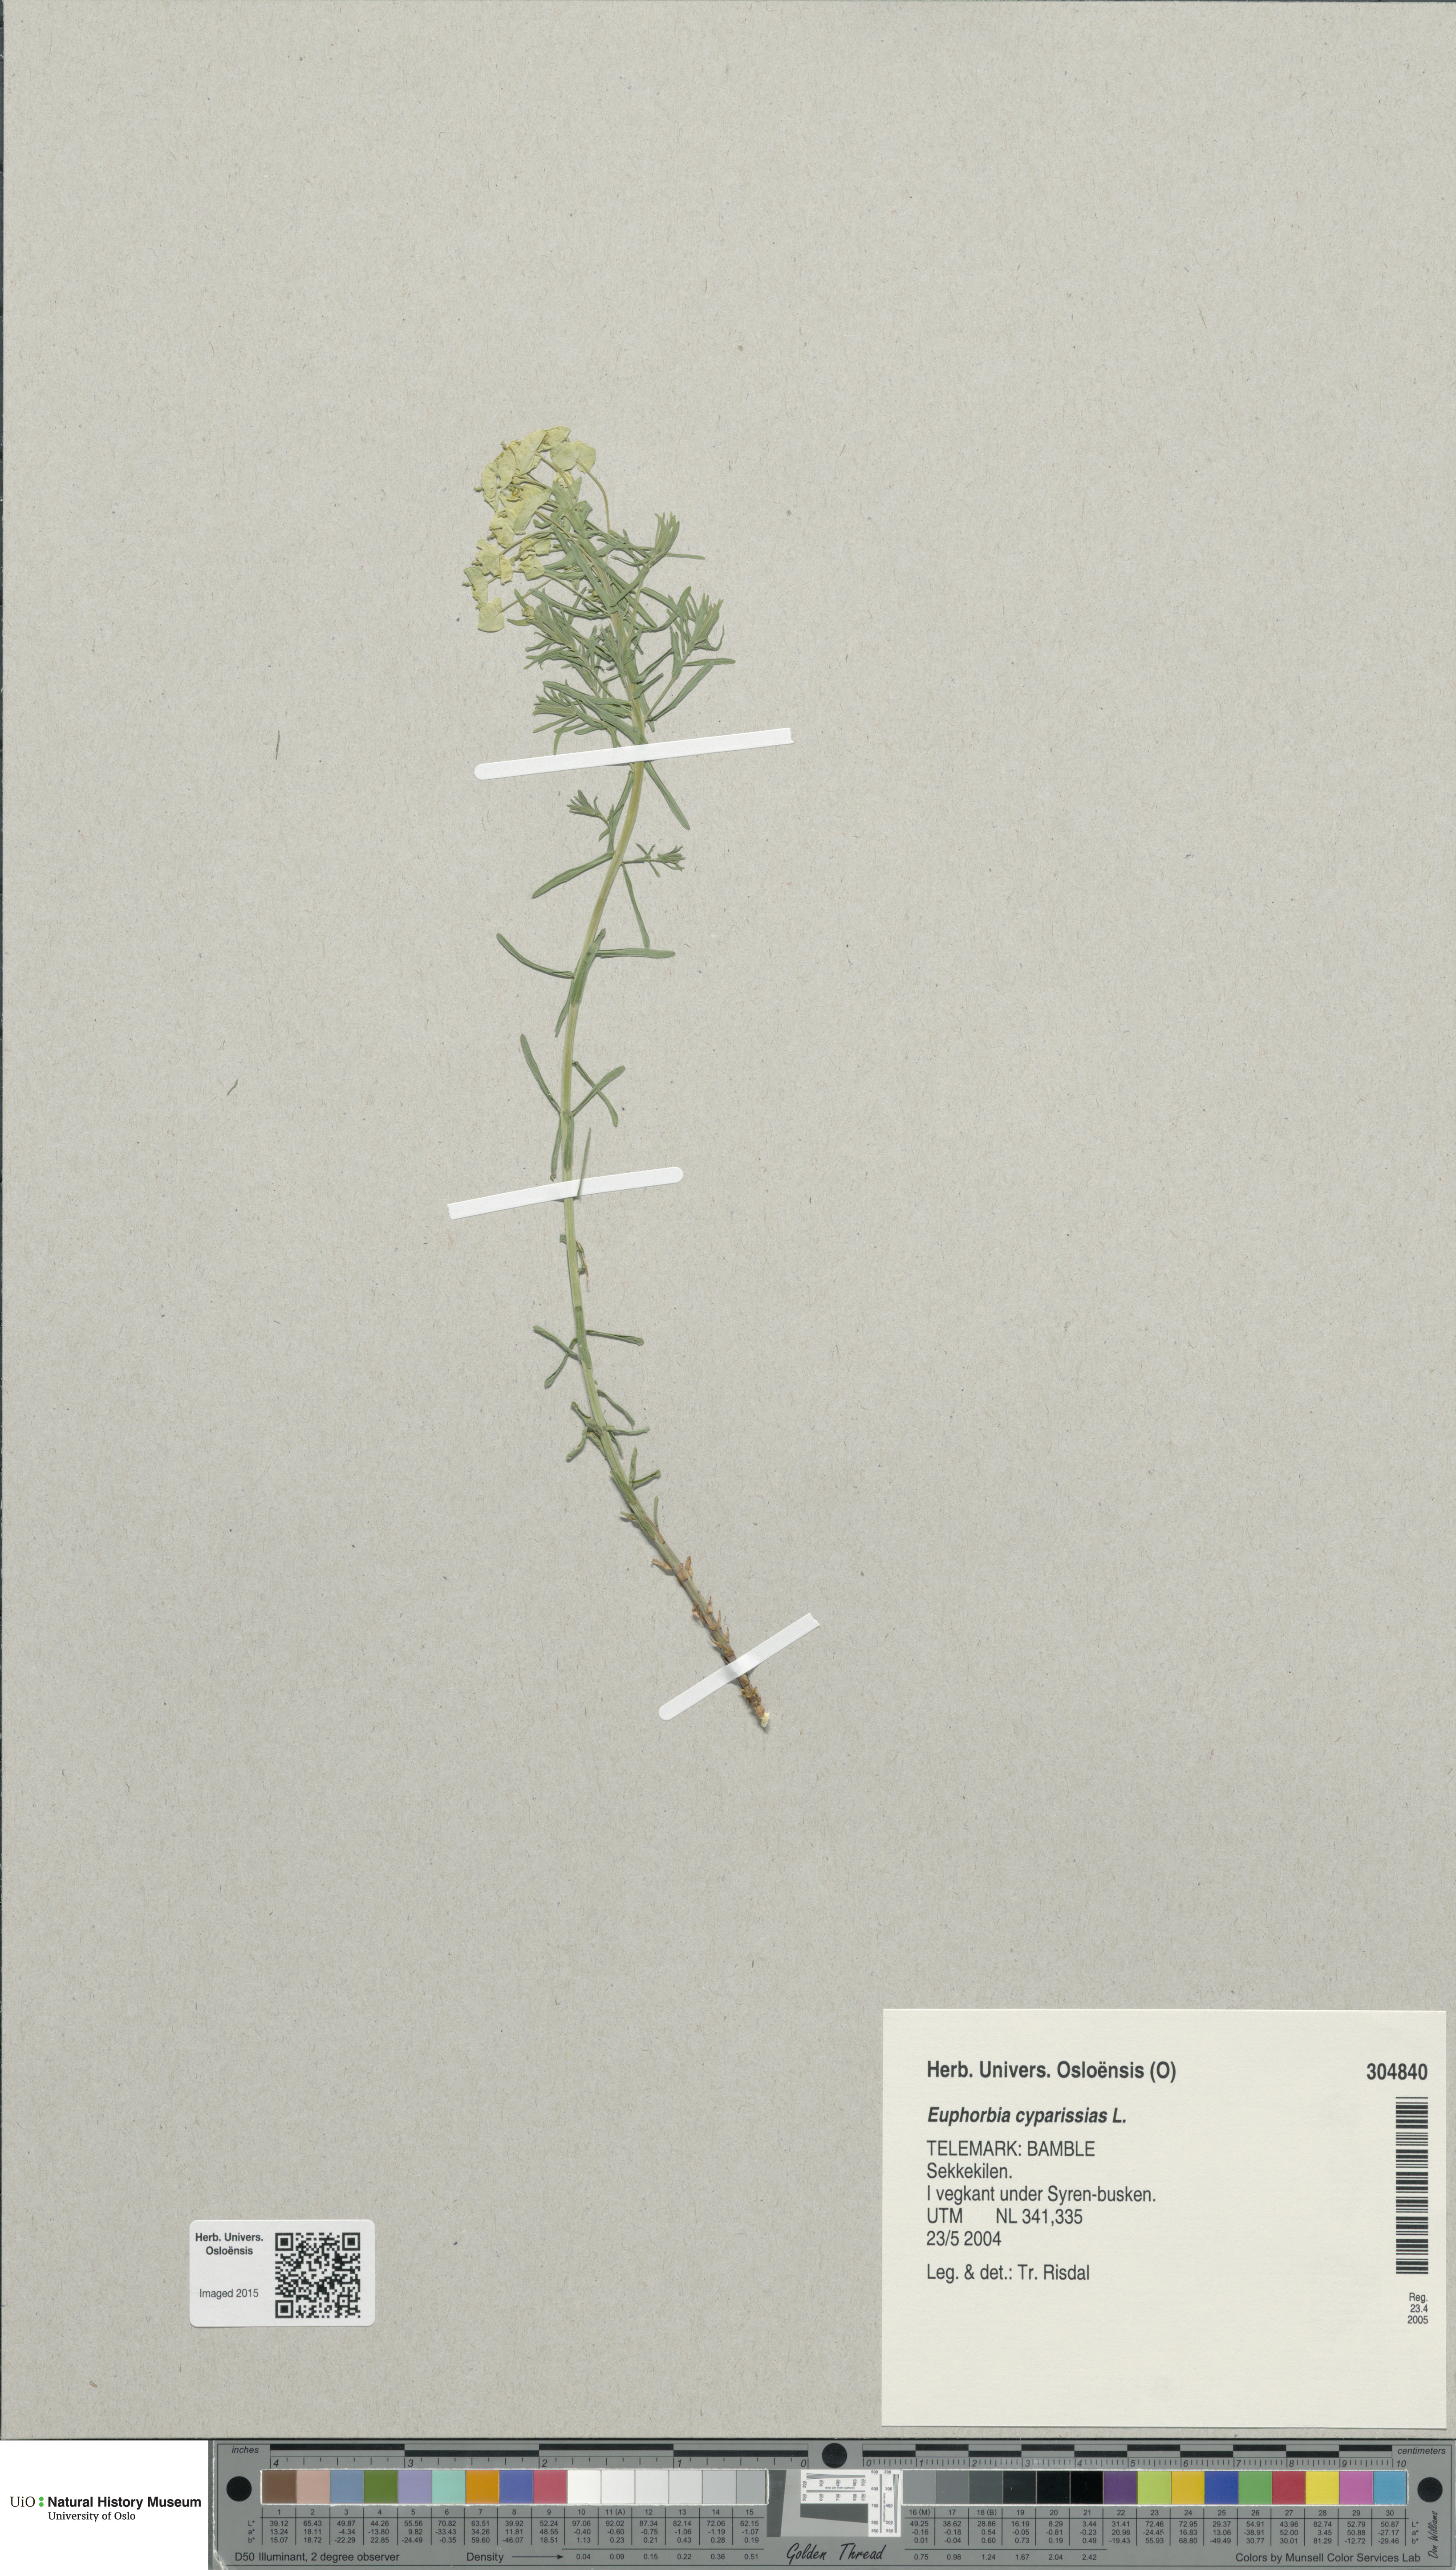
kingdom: Plantae
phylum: Tracheophyta
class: Magnoliopsida
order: Malpighiales
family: Euphorbiaceae
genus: Euphorbia
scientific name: Euphorbia cyparissias
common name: Cypress spurge
